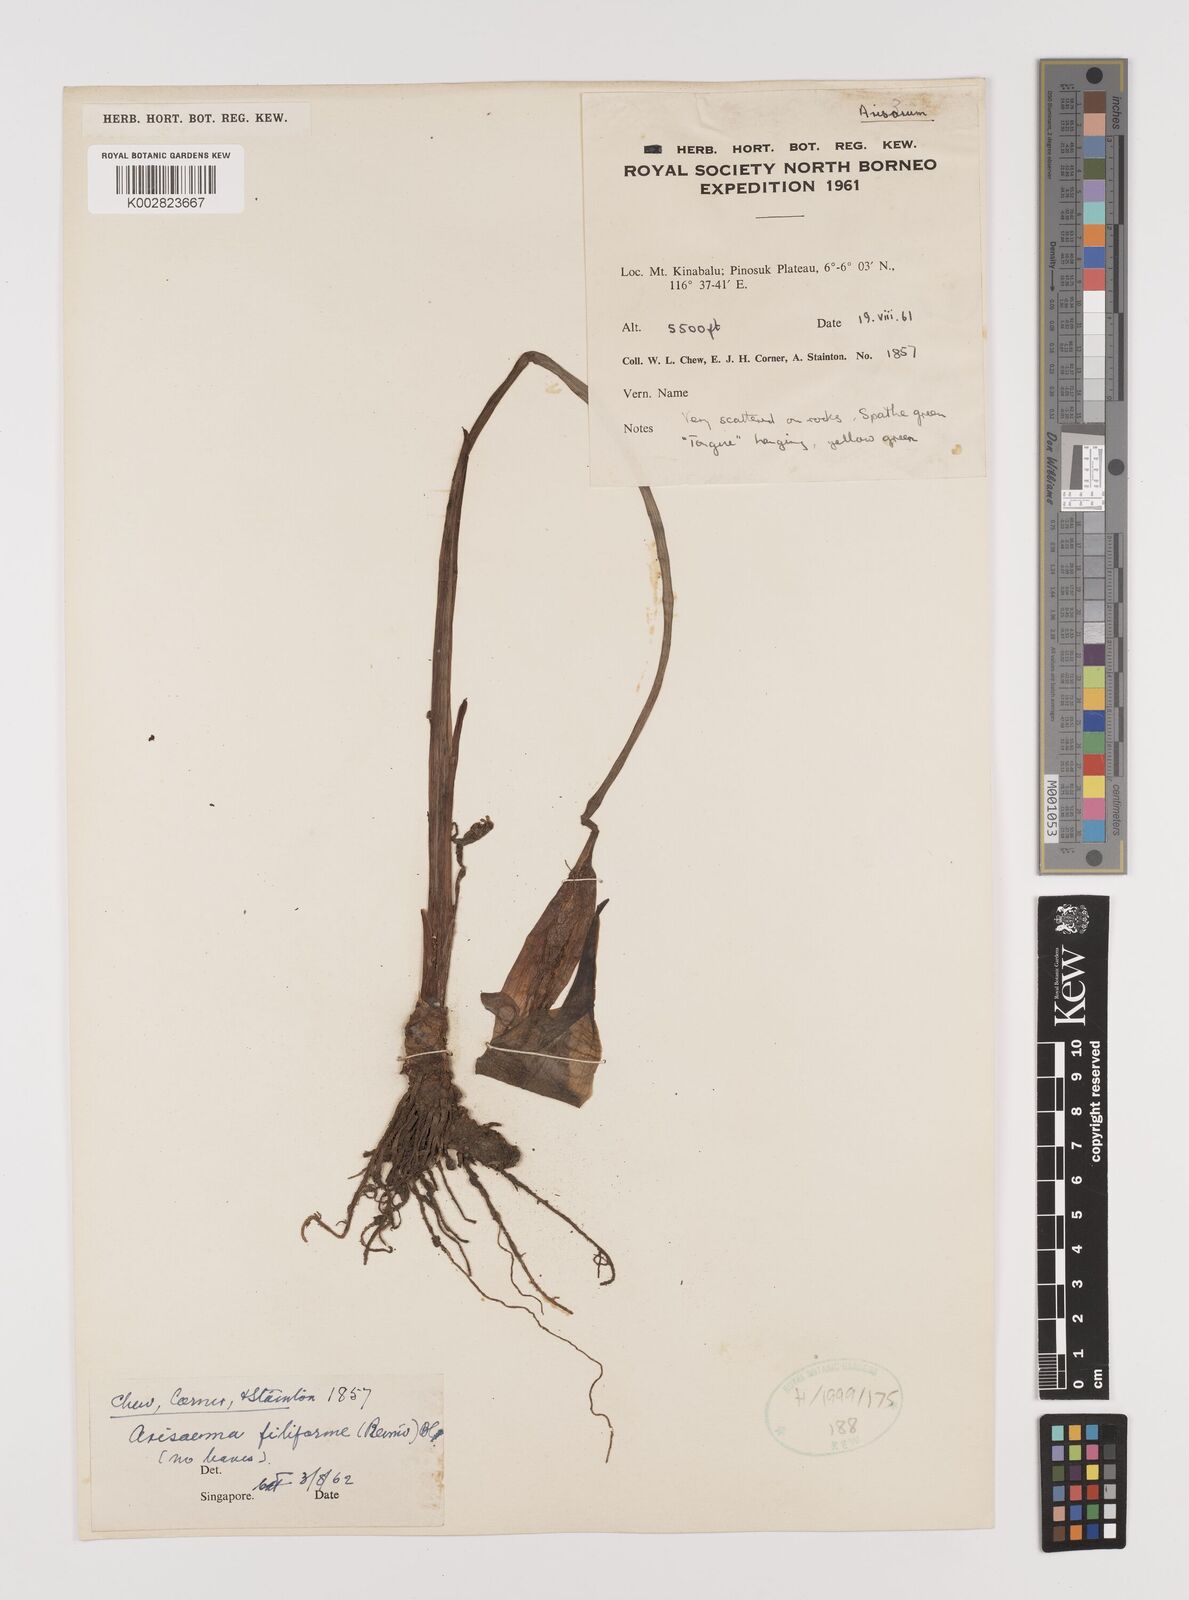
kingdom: Plantae
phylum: Tracheophyta
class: Liliopsida
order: Alismatales
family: Araceae
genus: Arisaema
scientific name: Arisaema filiforme
